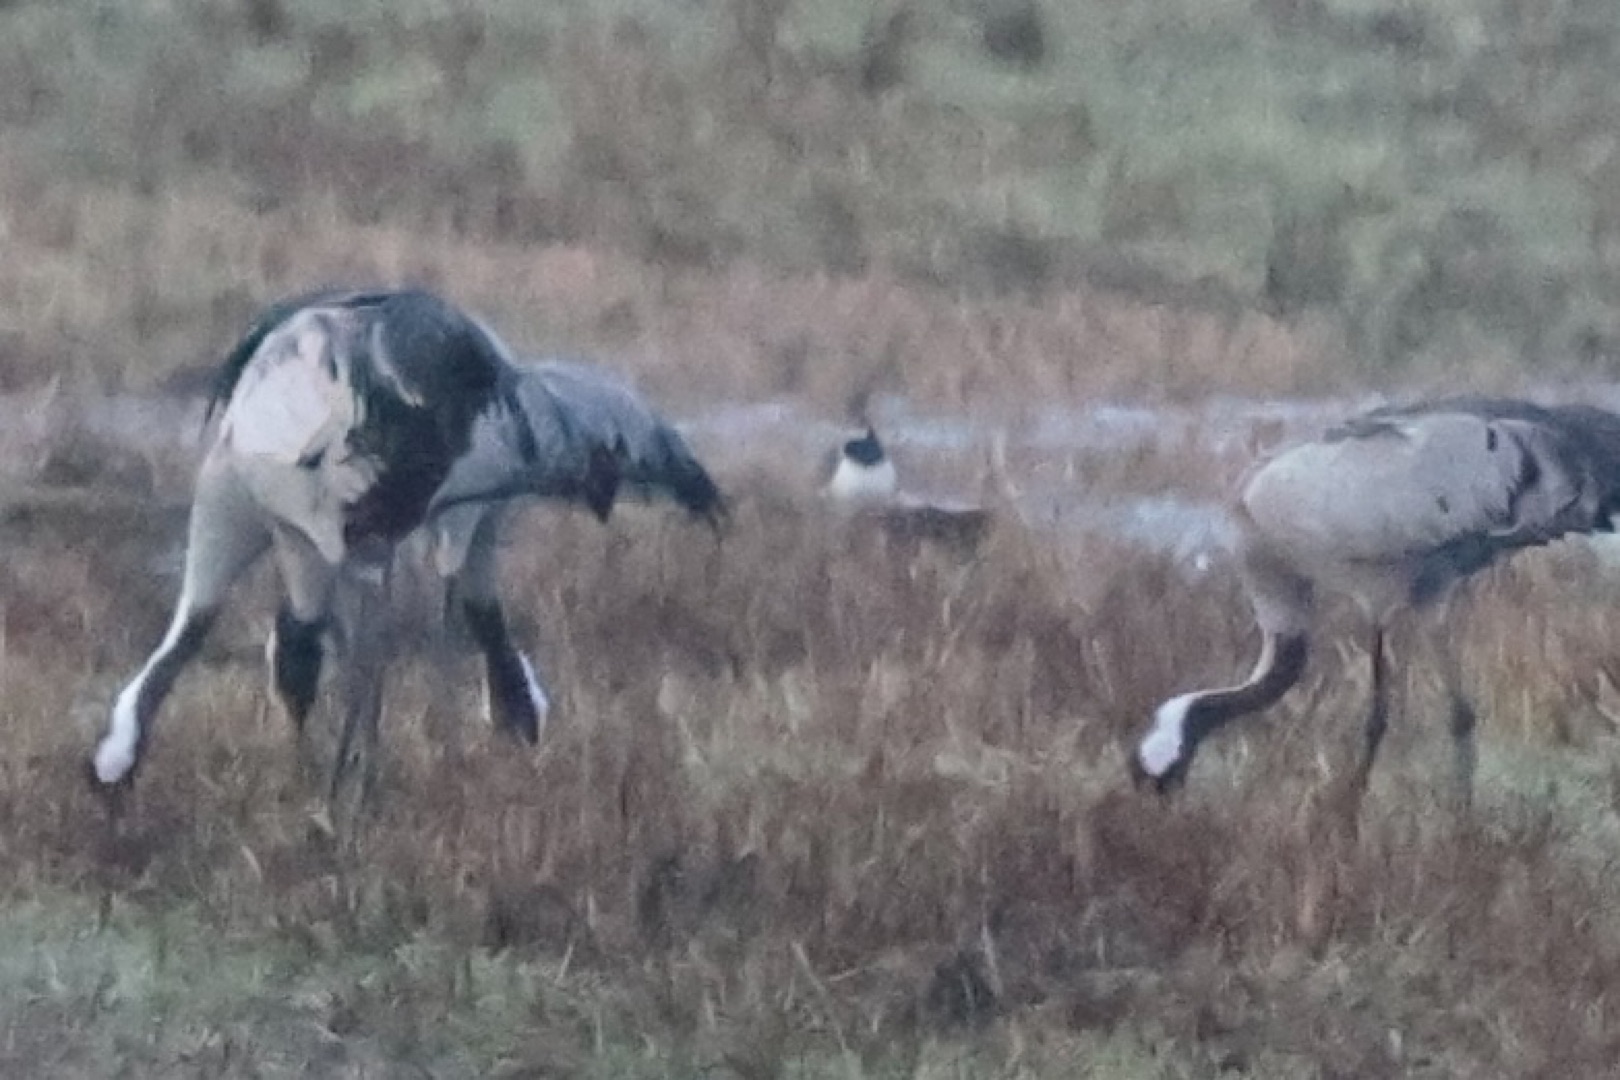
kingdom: Animalia
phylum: Chordata
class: Aves
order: Charadriiformes
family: Charadriidae
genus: Vanellus
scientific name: Vanellus vanellus
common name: Vibe
